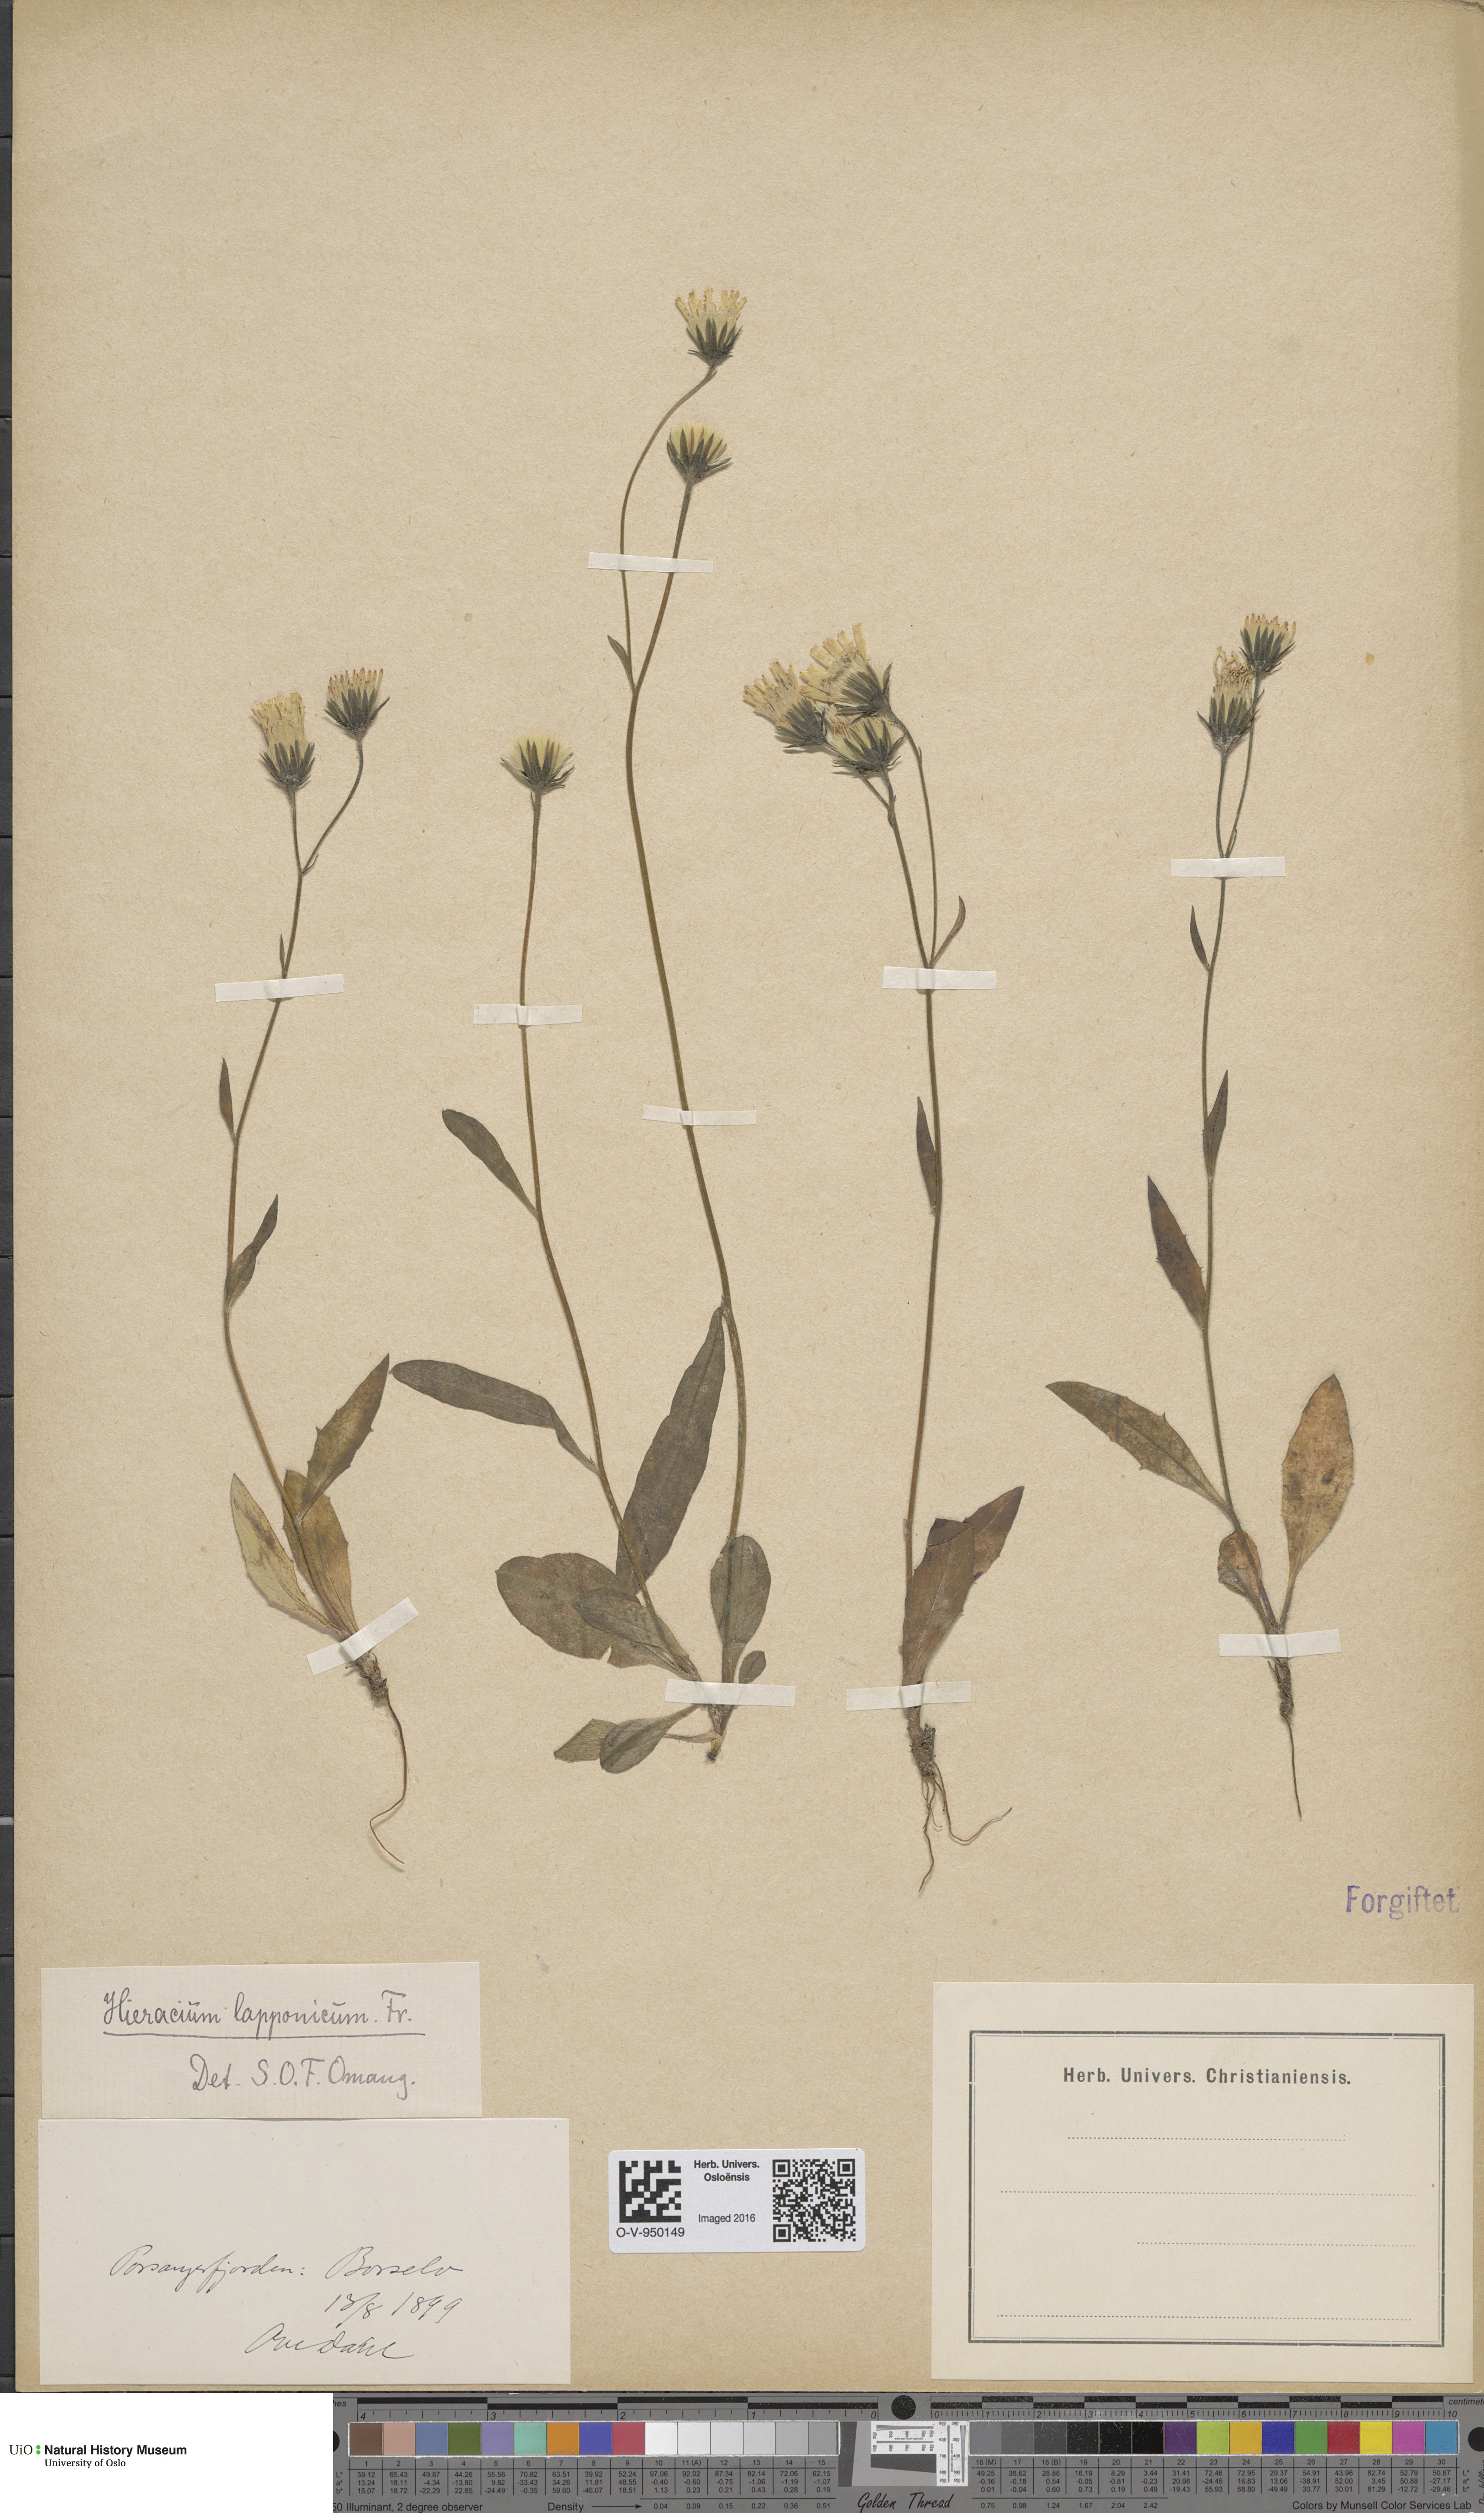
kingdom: Plantae
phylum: Tracheophyta
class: Magnoliopsida
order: Asterales
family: Asteraceae
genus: Hieracium
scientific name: Hieracium lapponicum
